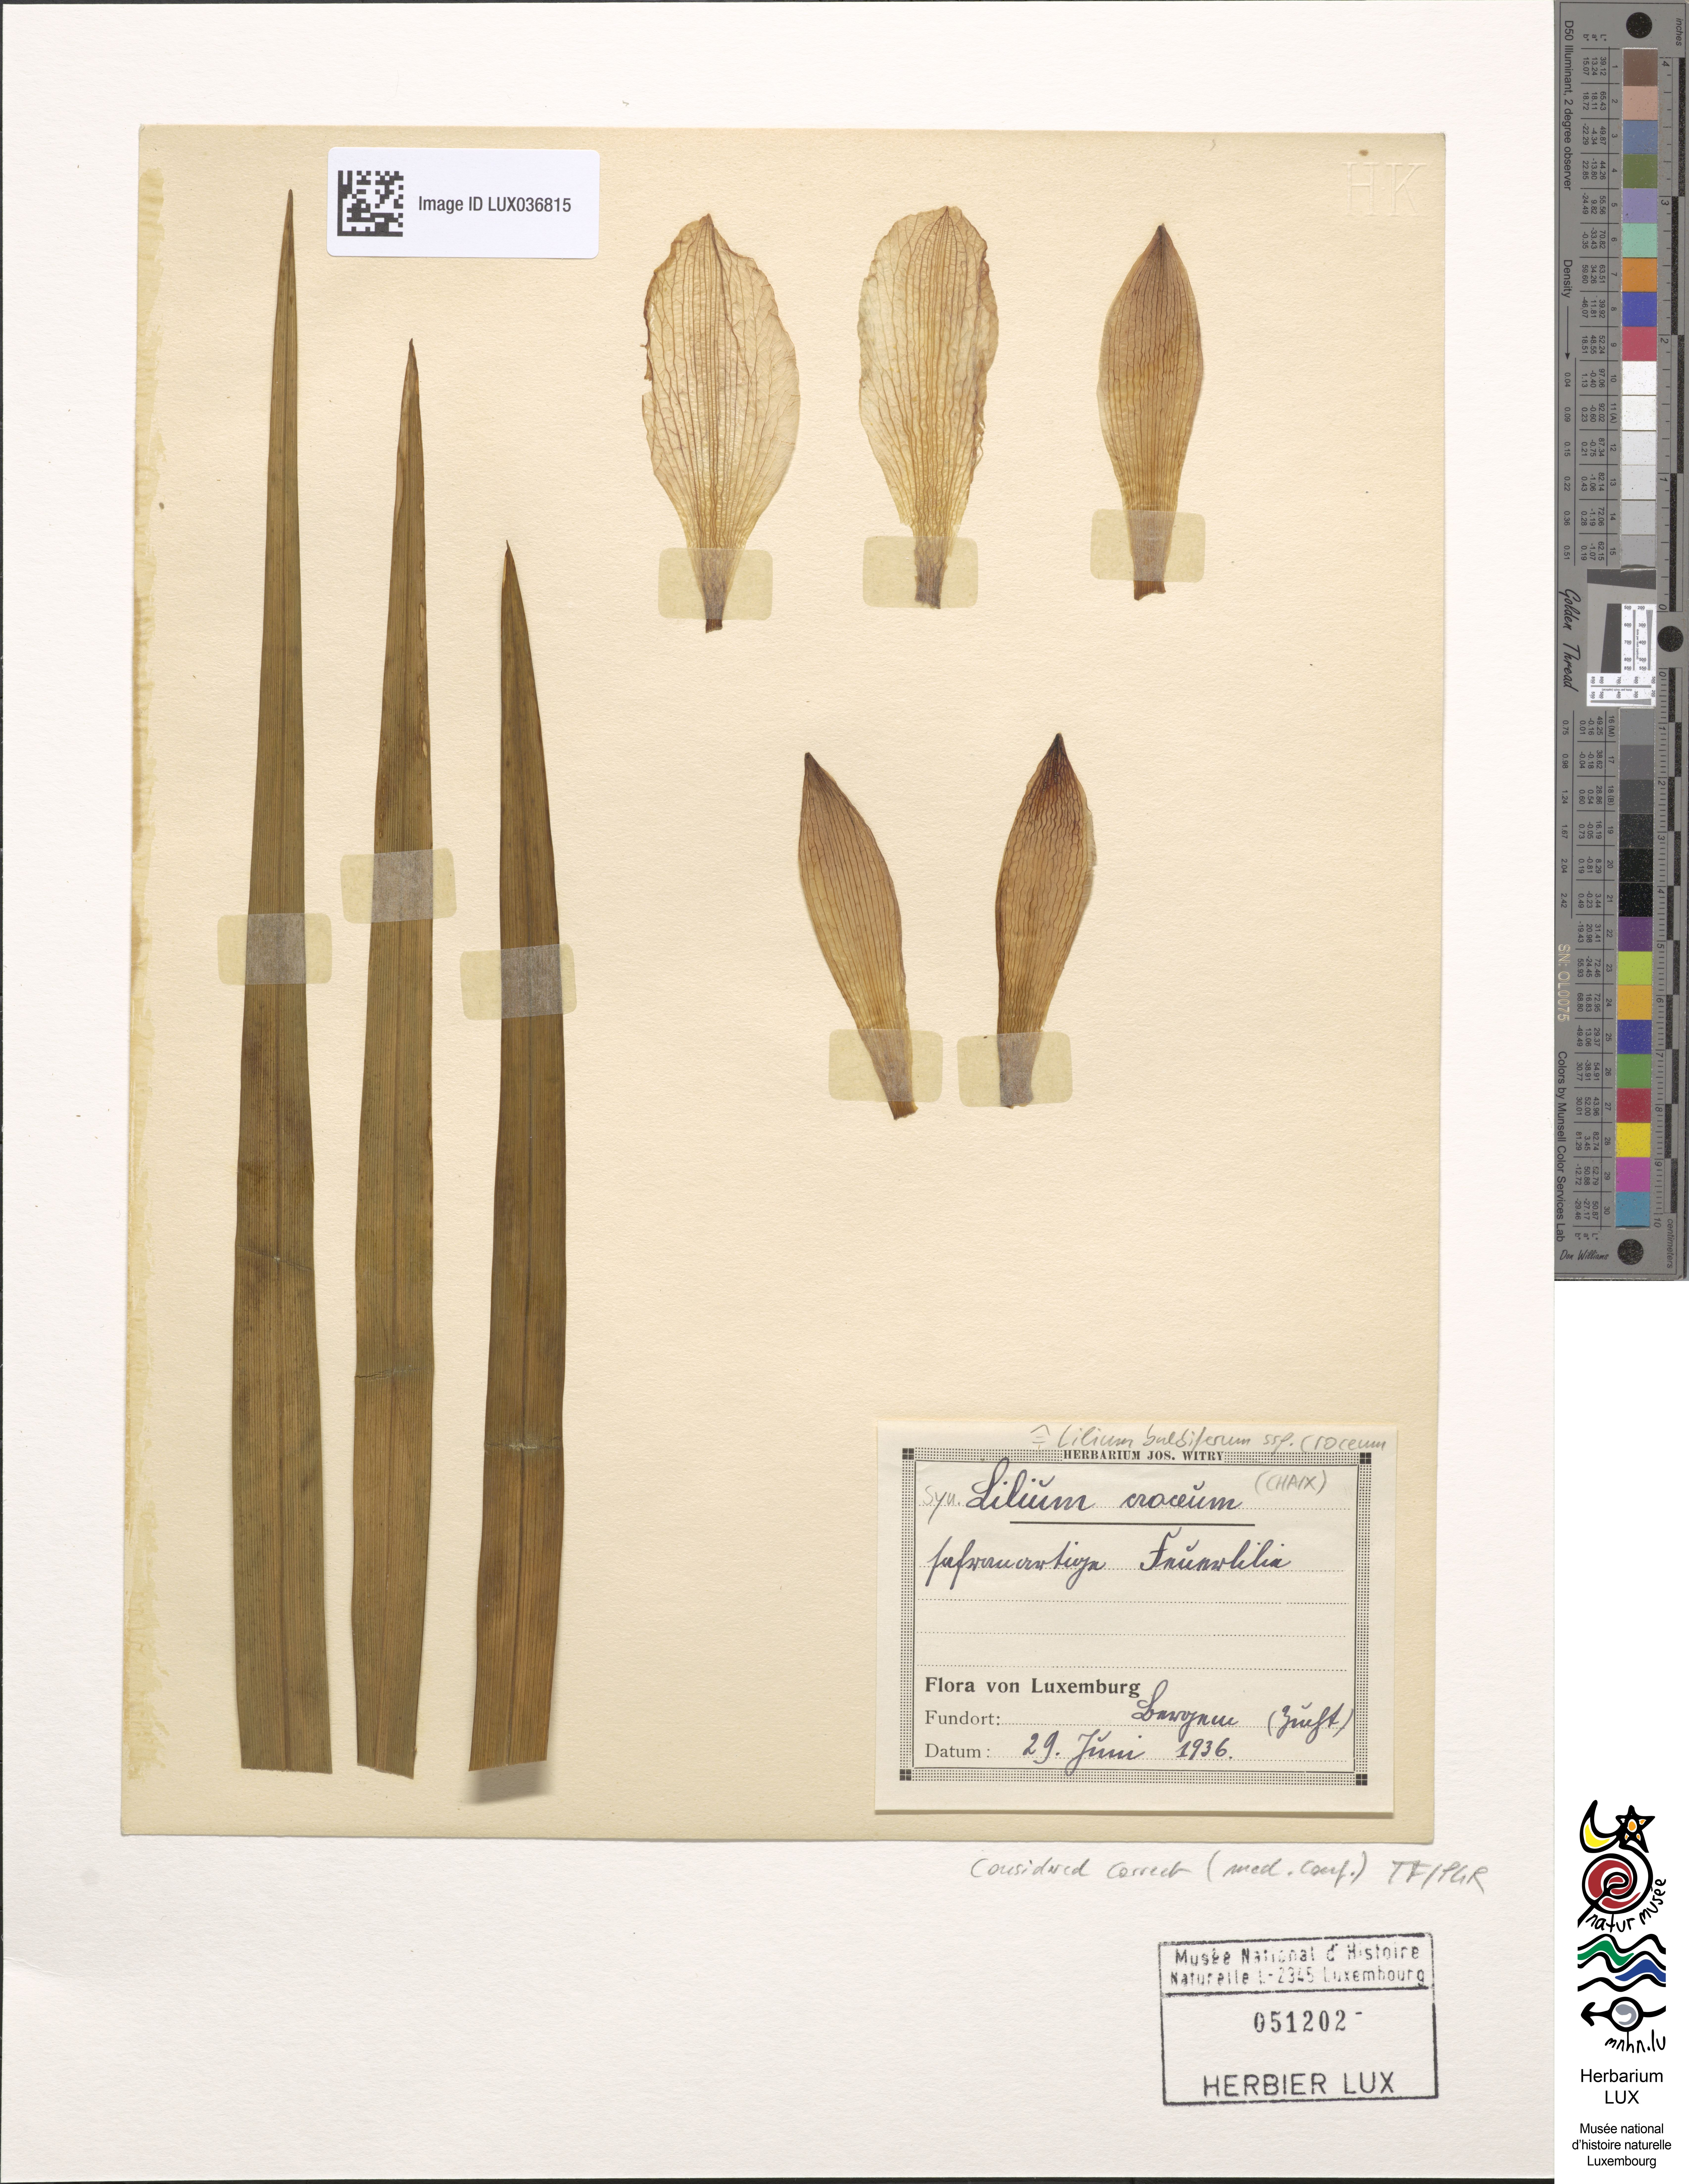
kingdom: Plantae
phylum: Tracheophyta
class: Liliopsida
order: Liliales
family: Liliaceae
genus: Lilium
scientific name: Lilium bulbiferum
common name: Orange lily
